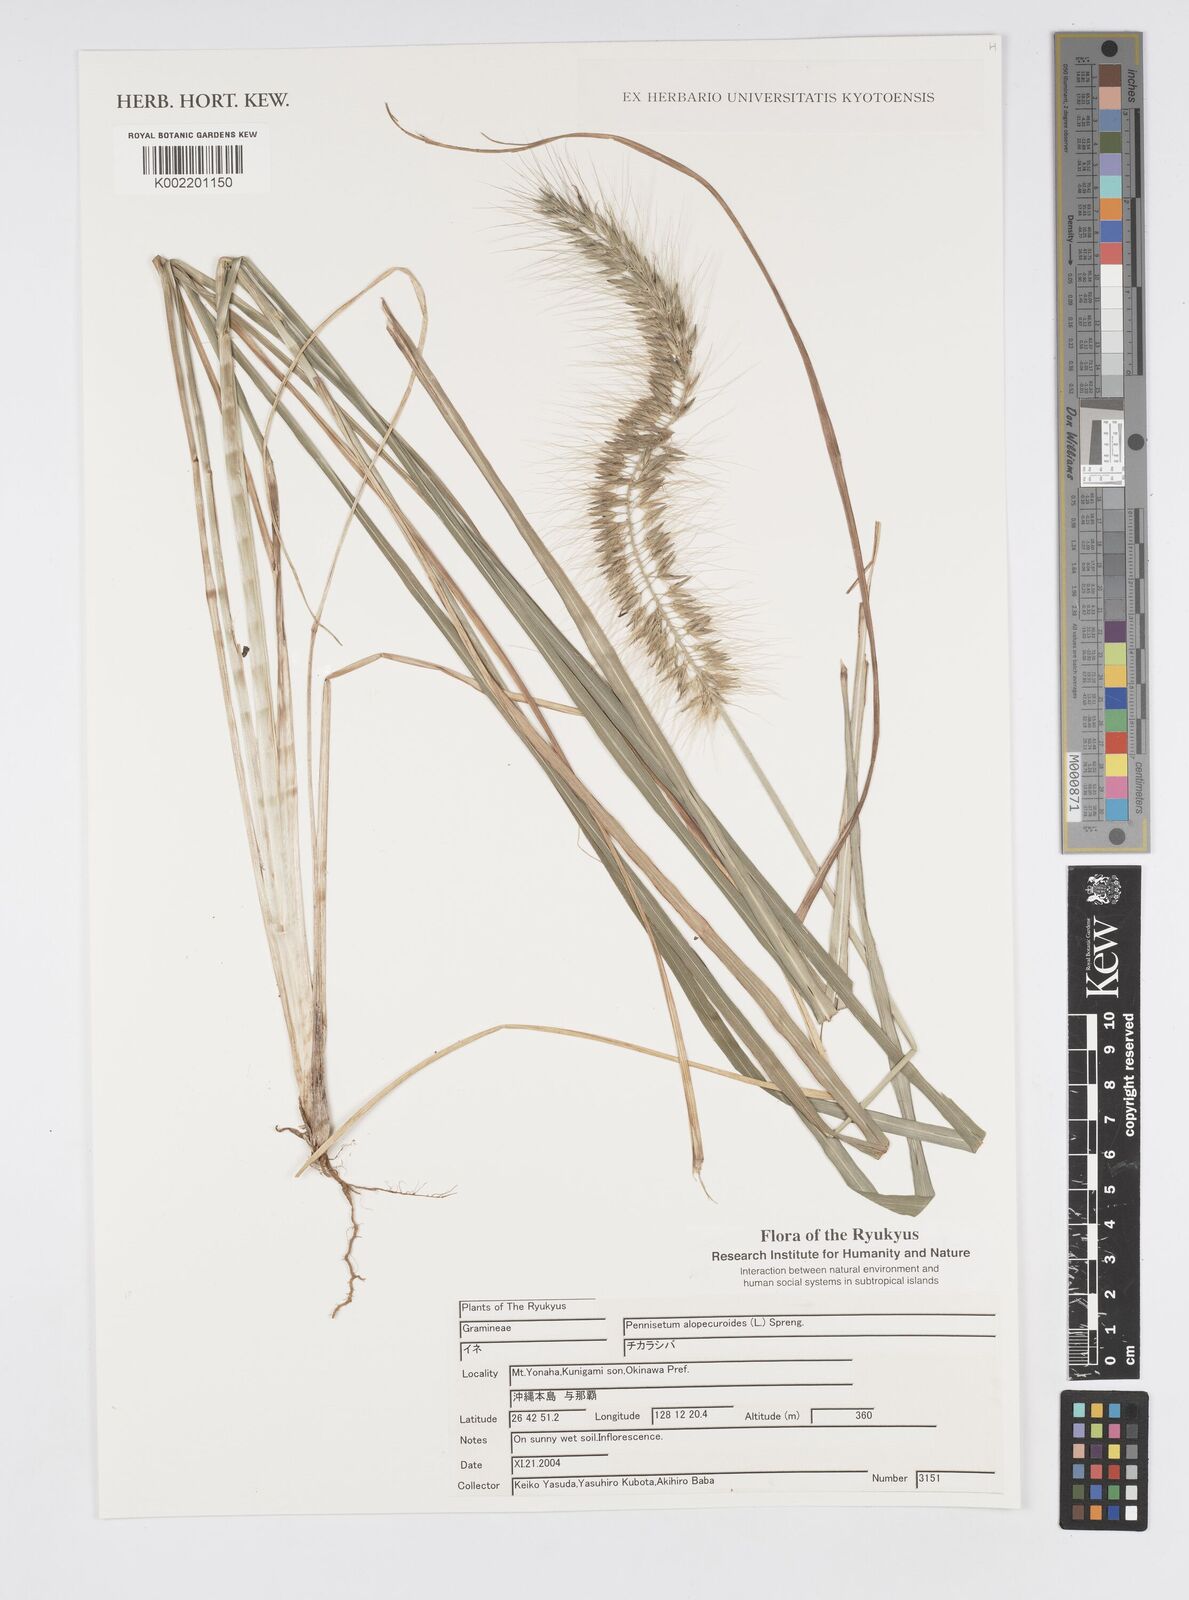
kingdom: Plantae
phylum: Tracheophyta
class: Liliopsida
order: Poales
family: Poaceae
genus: Cenchrus
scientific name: Cenchrus alopecuroides
